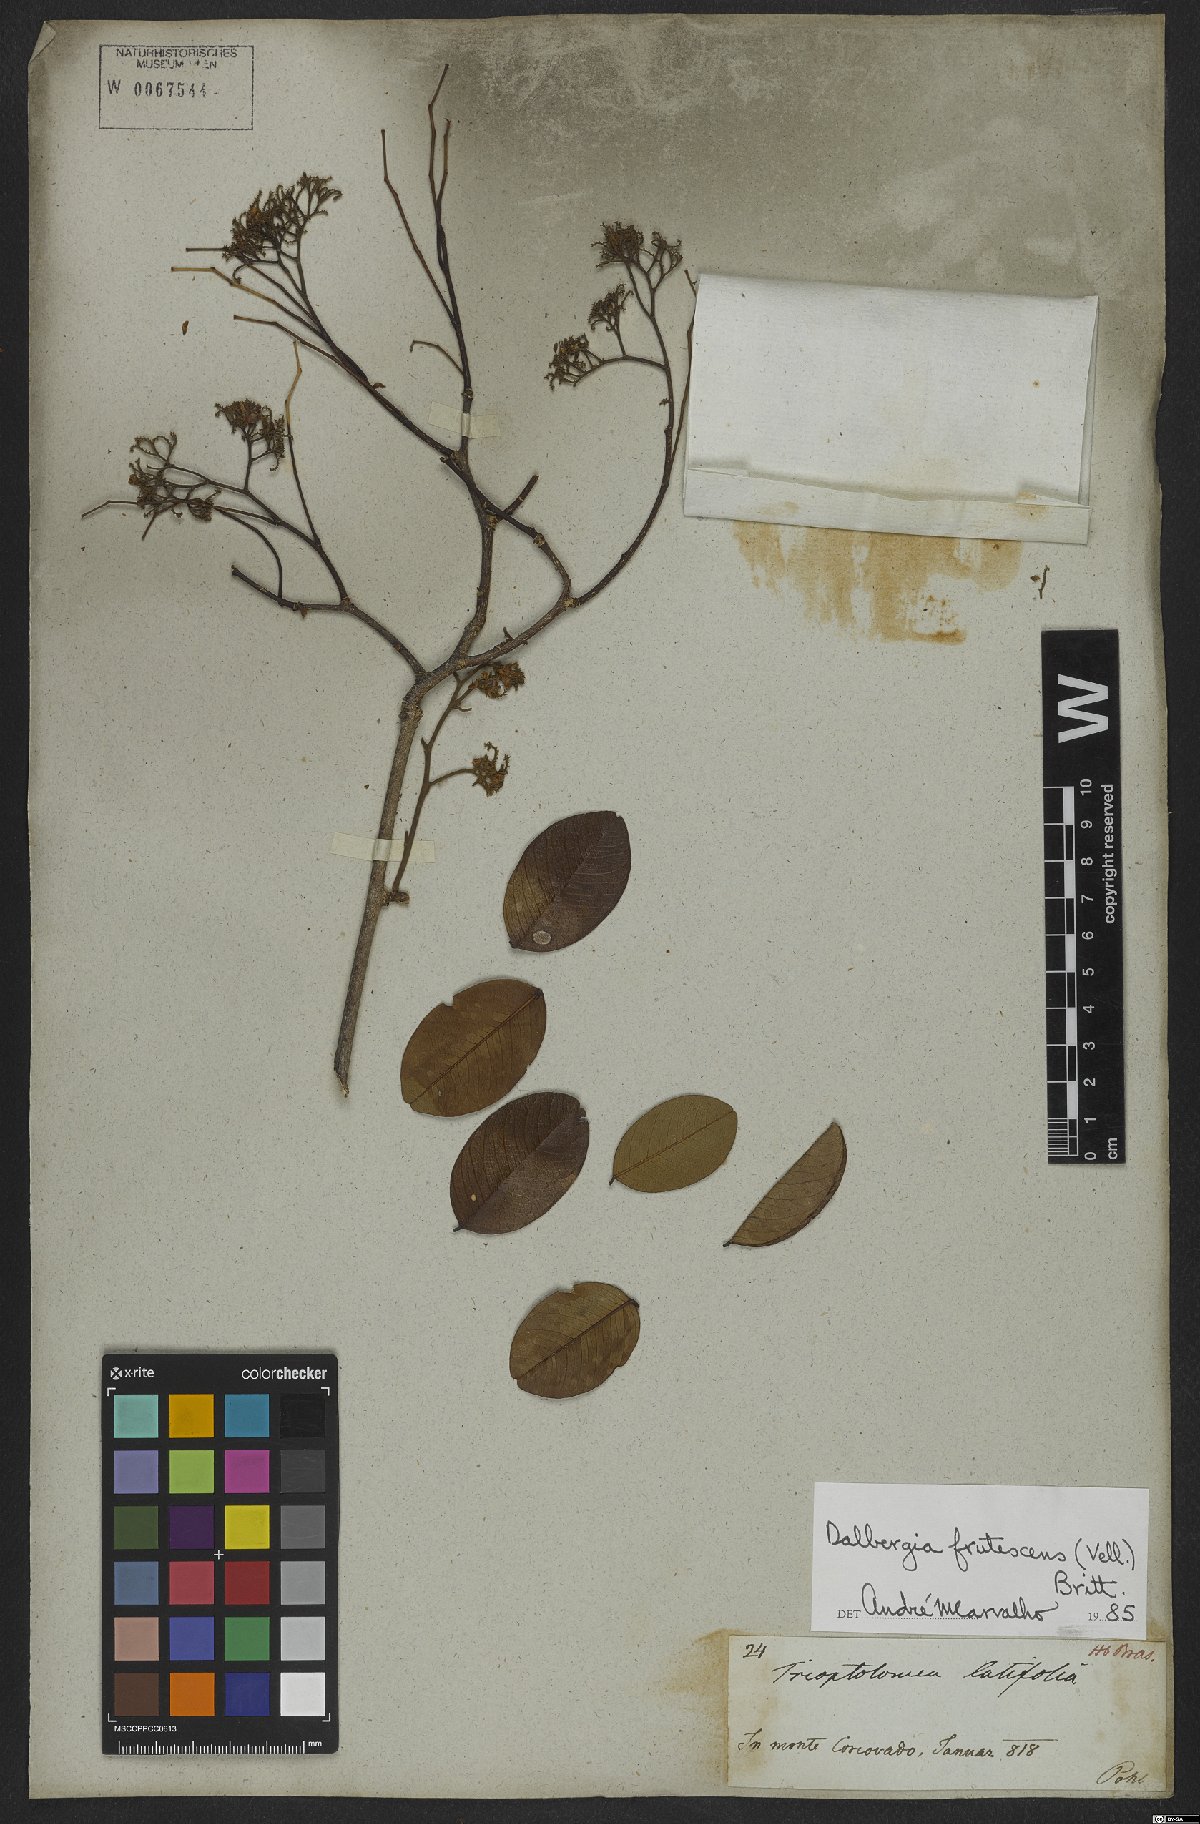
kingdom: Plantae
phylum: Tracheophyta
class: Magnoliopsida
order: Fabales
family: Fabaceae
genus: Dalbergia
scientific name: Dalbergia frutescens
